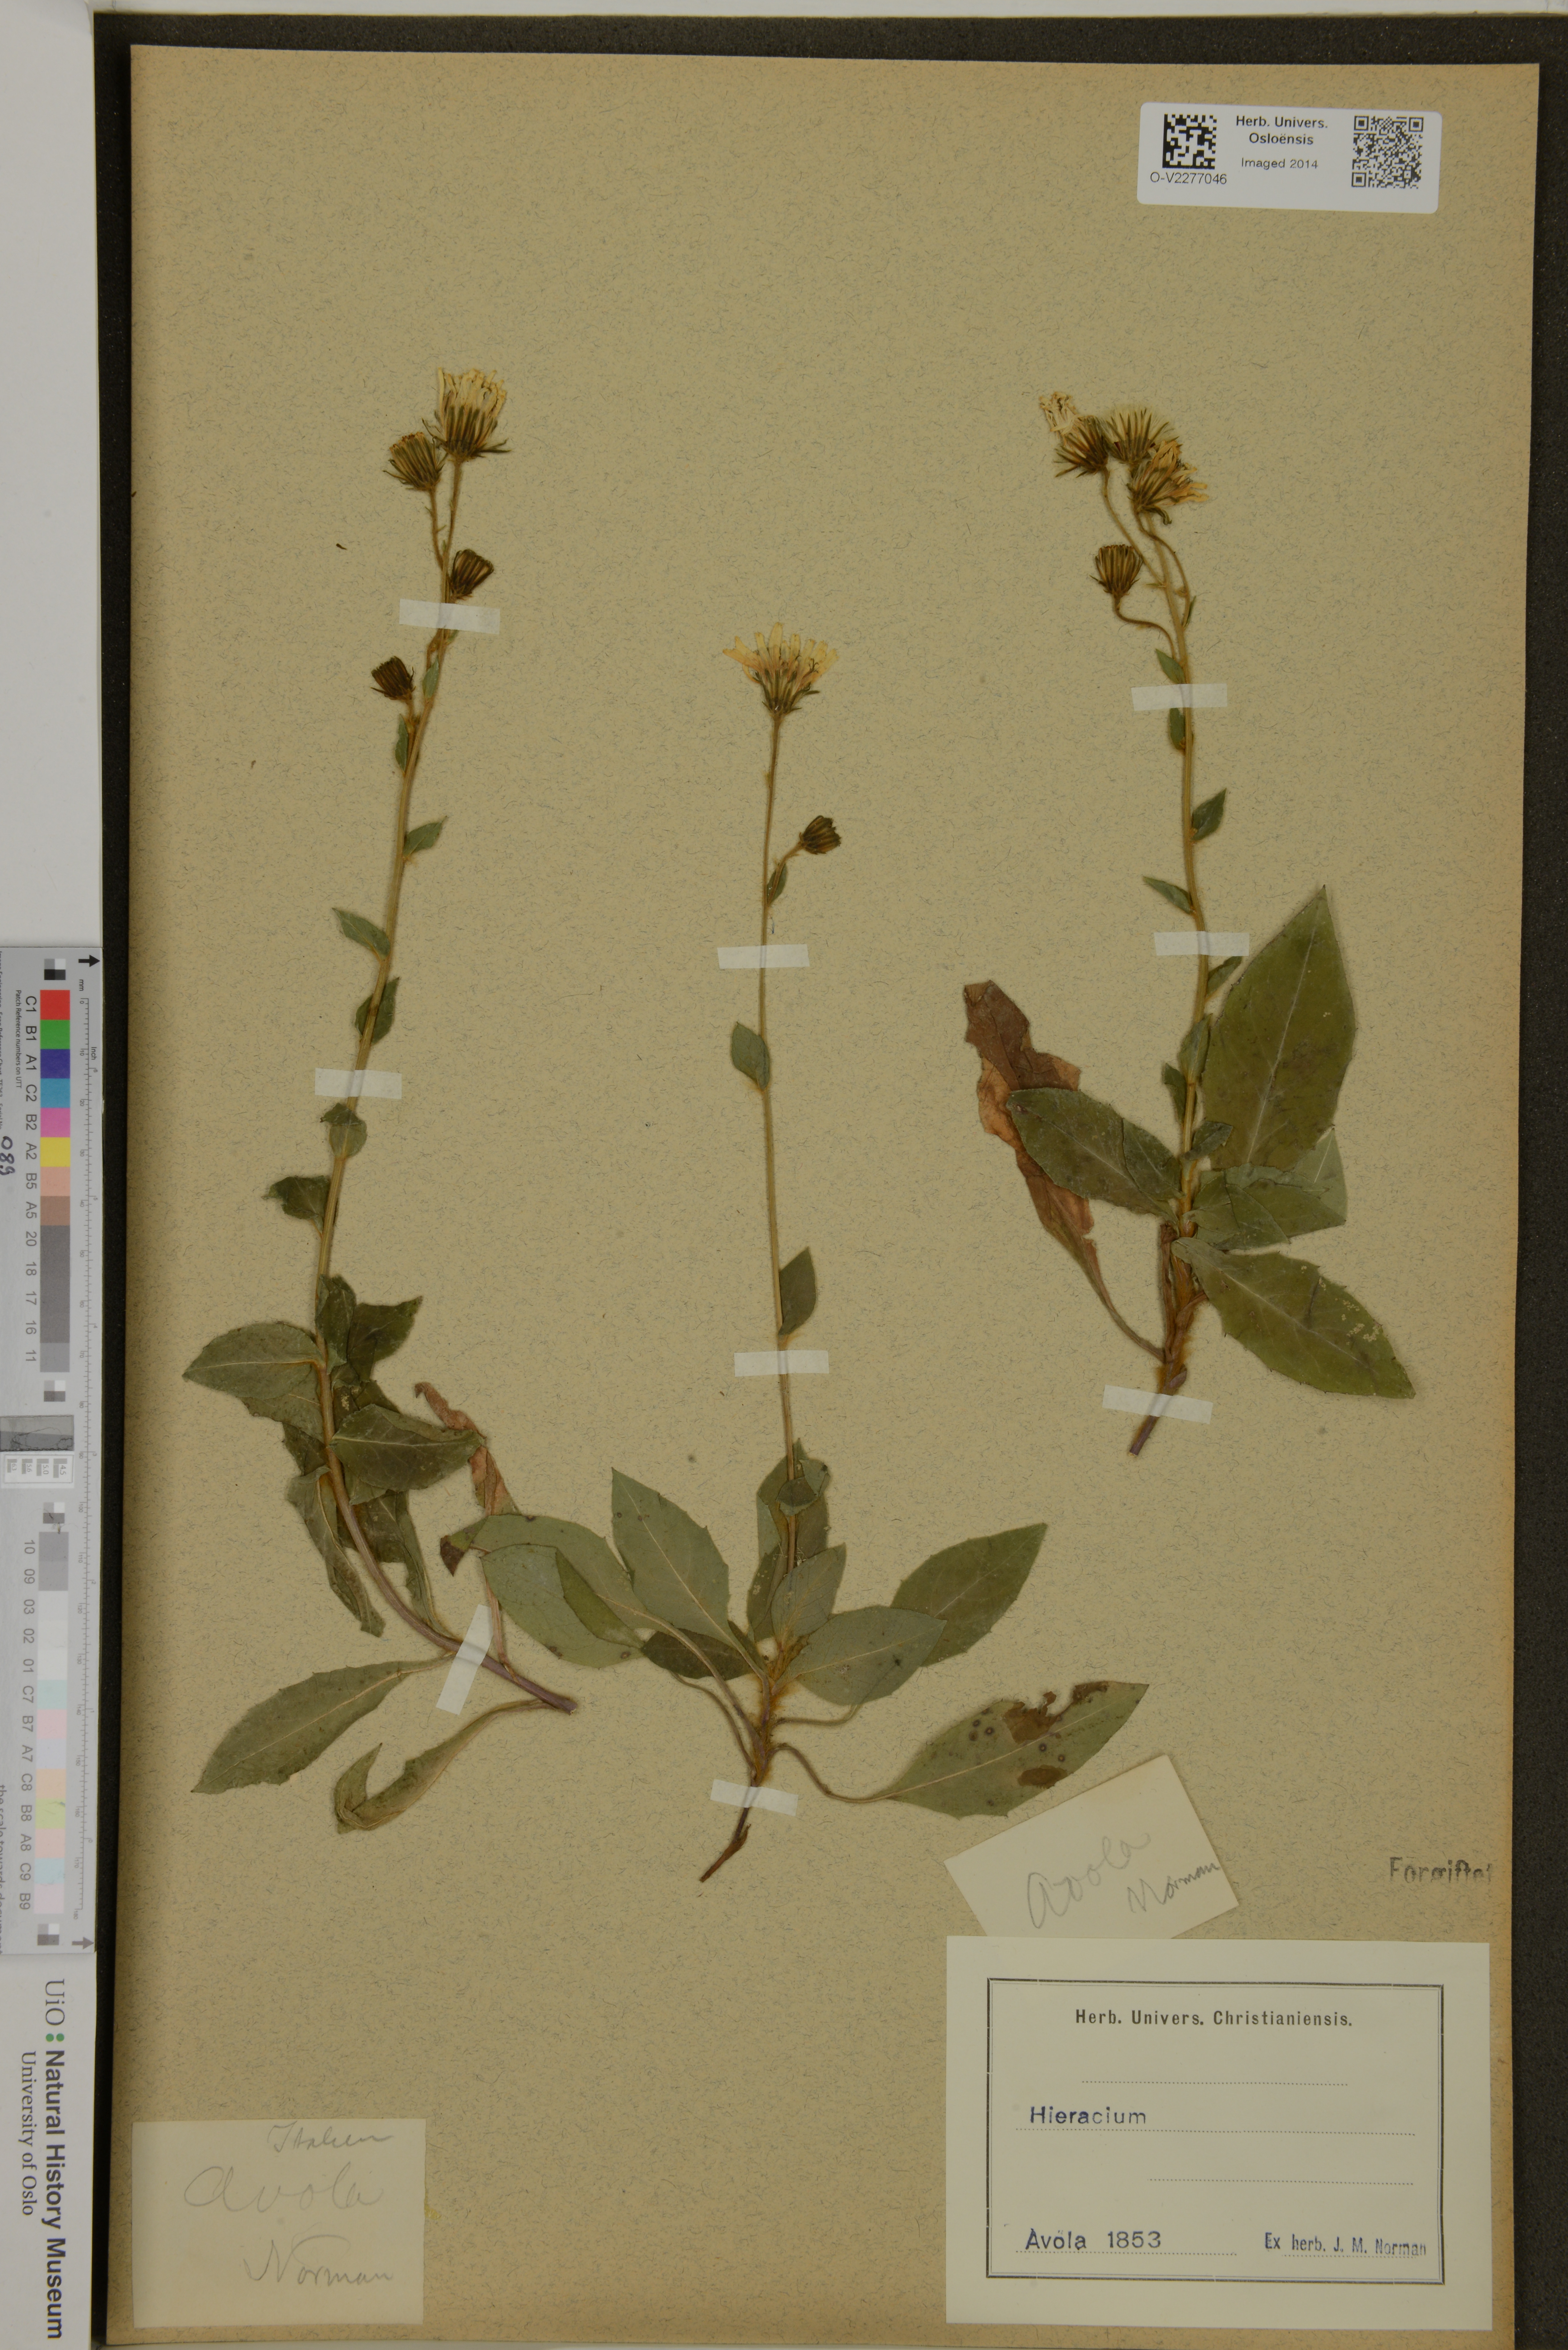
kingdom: Plantae
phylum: Tracheophyta
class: Magnoliopsida
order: Asterales
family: Asteraceae
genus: Hieracium
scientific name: Hieracium
